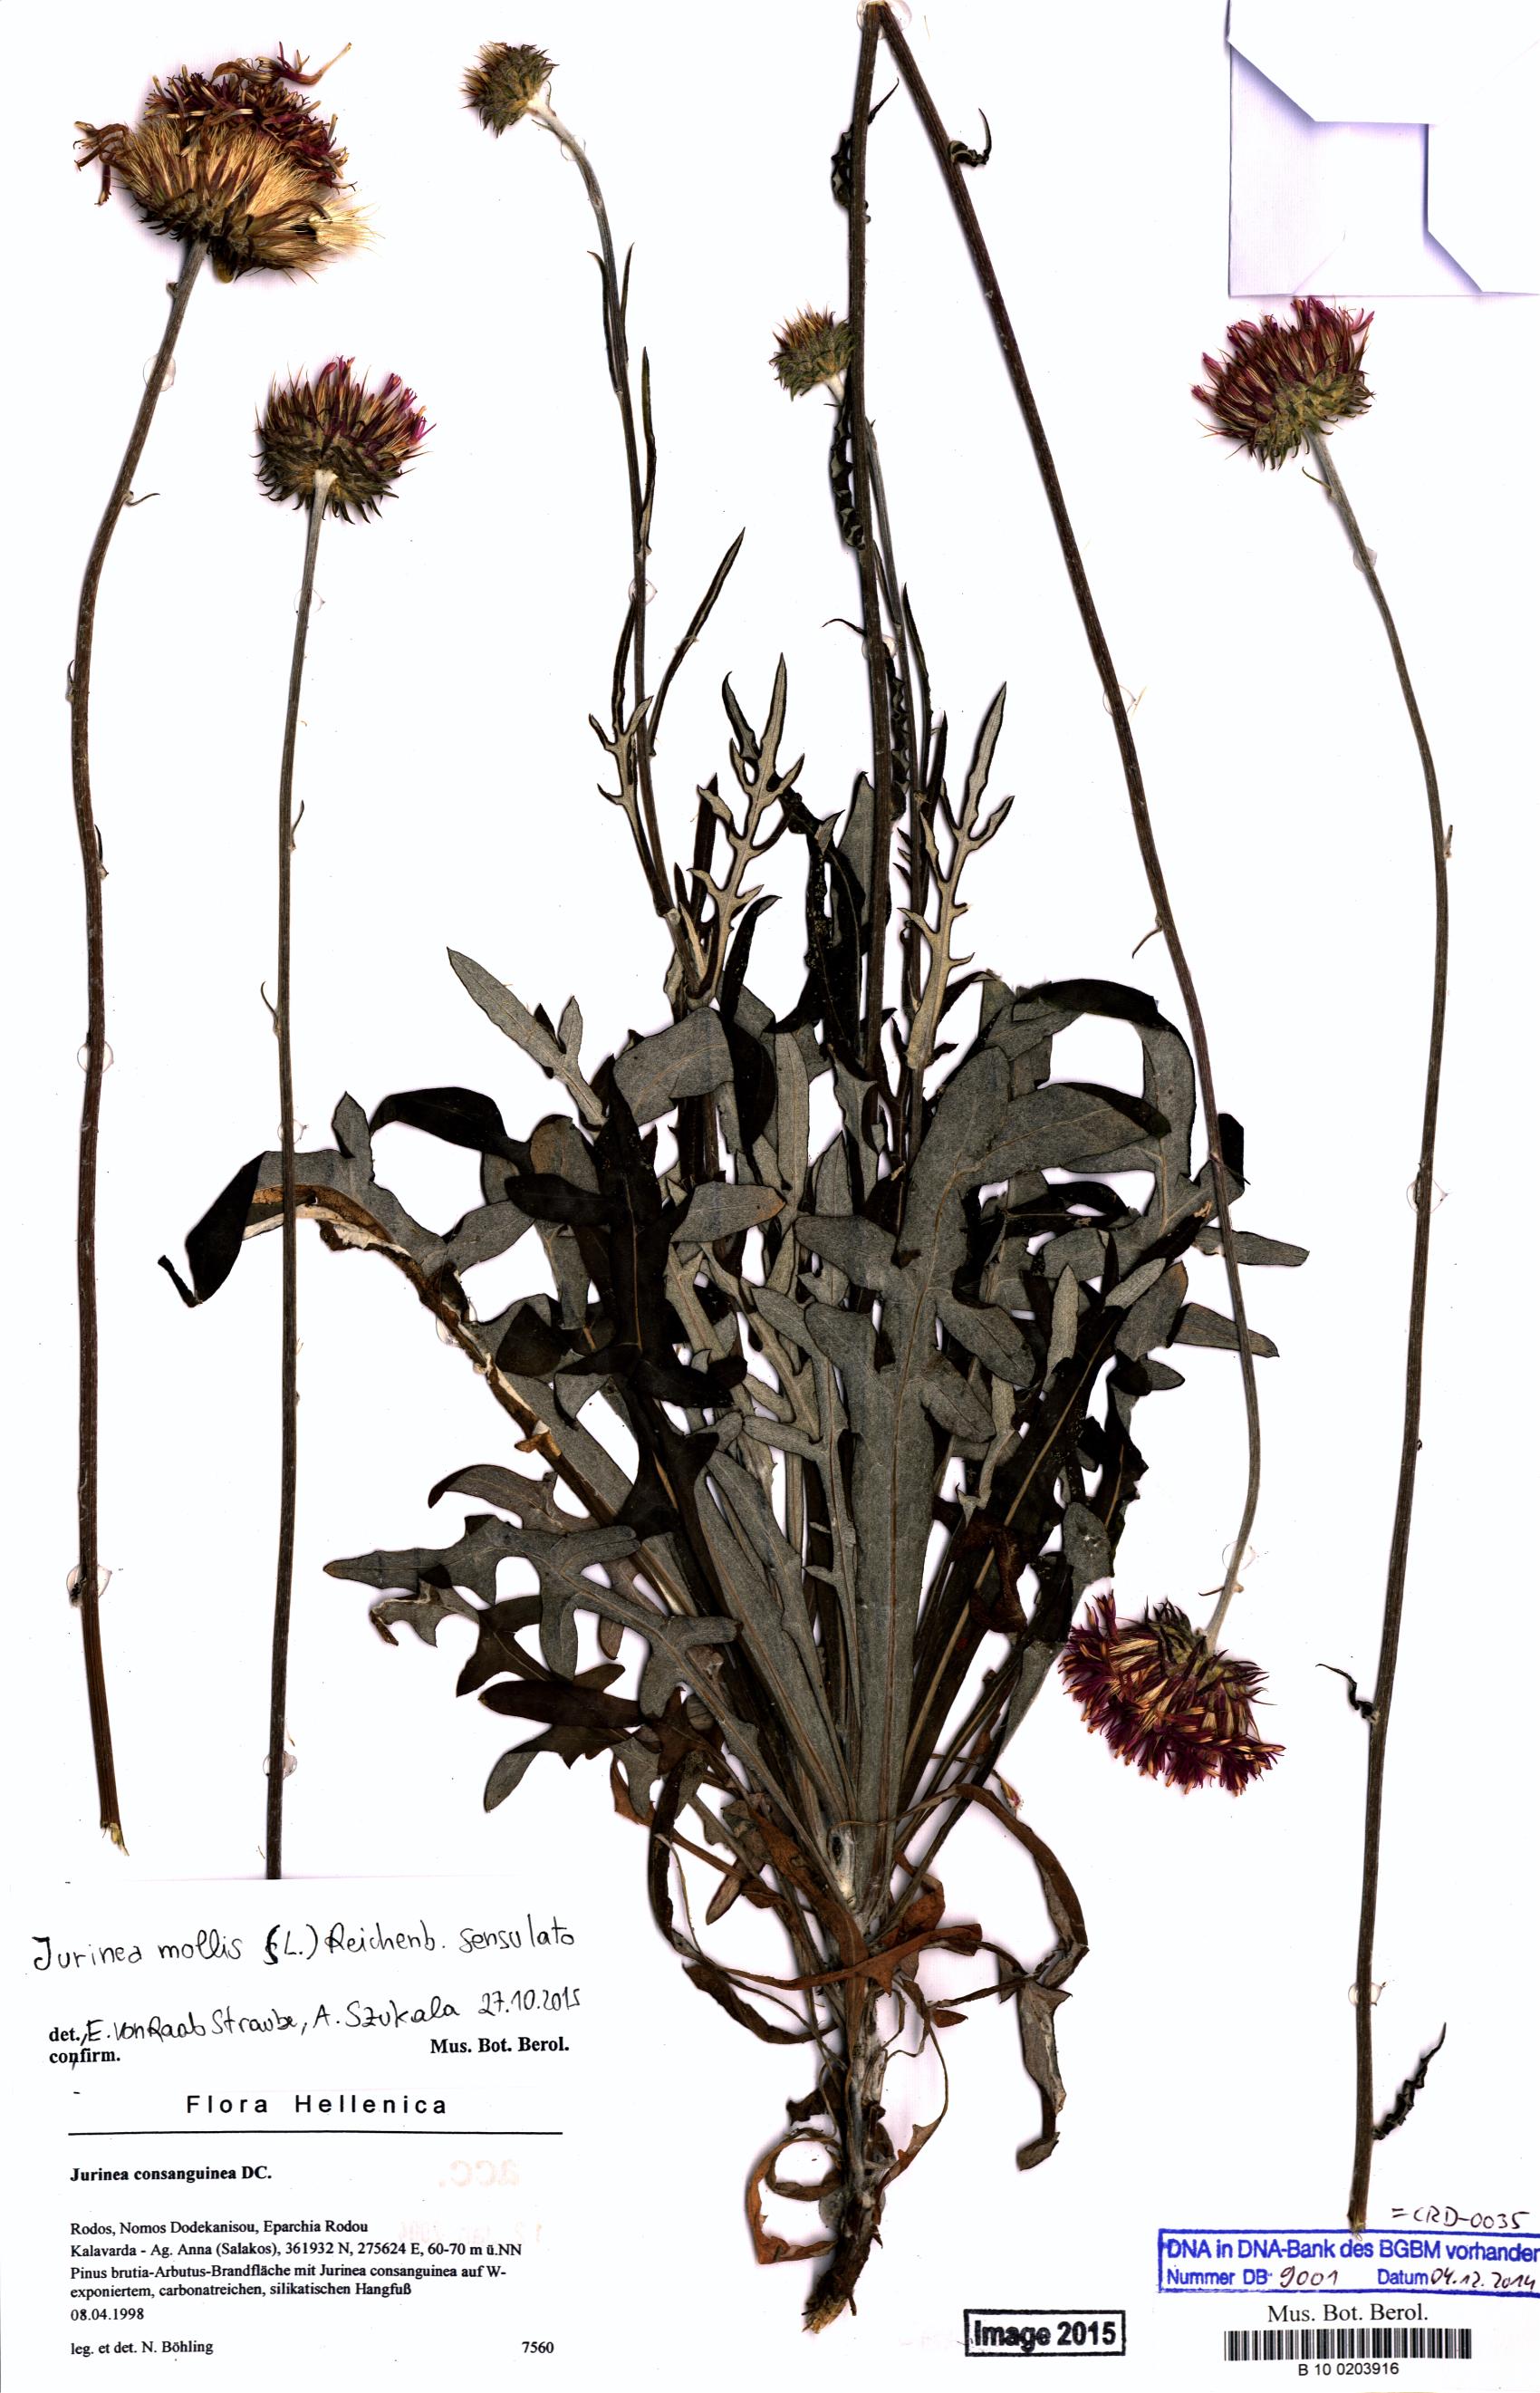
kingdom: Plantae
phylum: Tracheophyta
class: Magnoliopsida
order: Asterales
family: Asteraceae
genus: Jurinea
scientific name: Jurinea consanguinea
